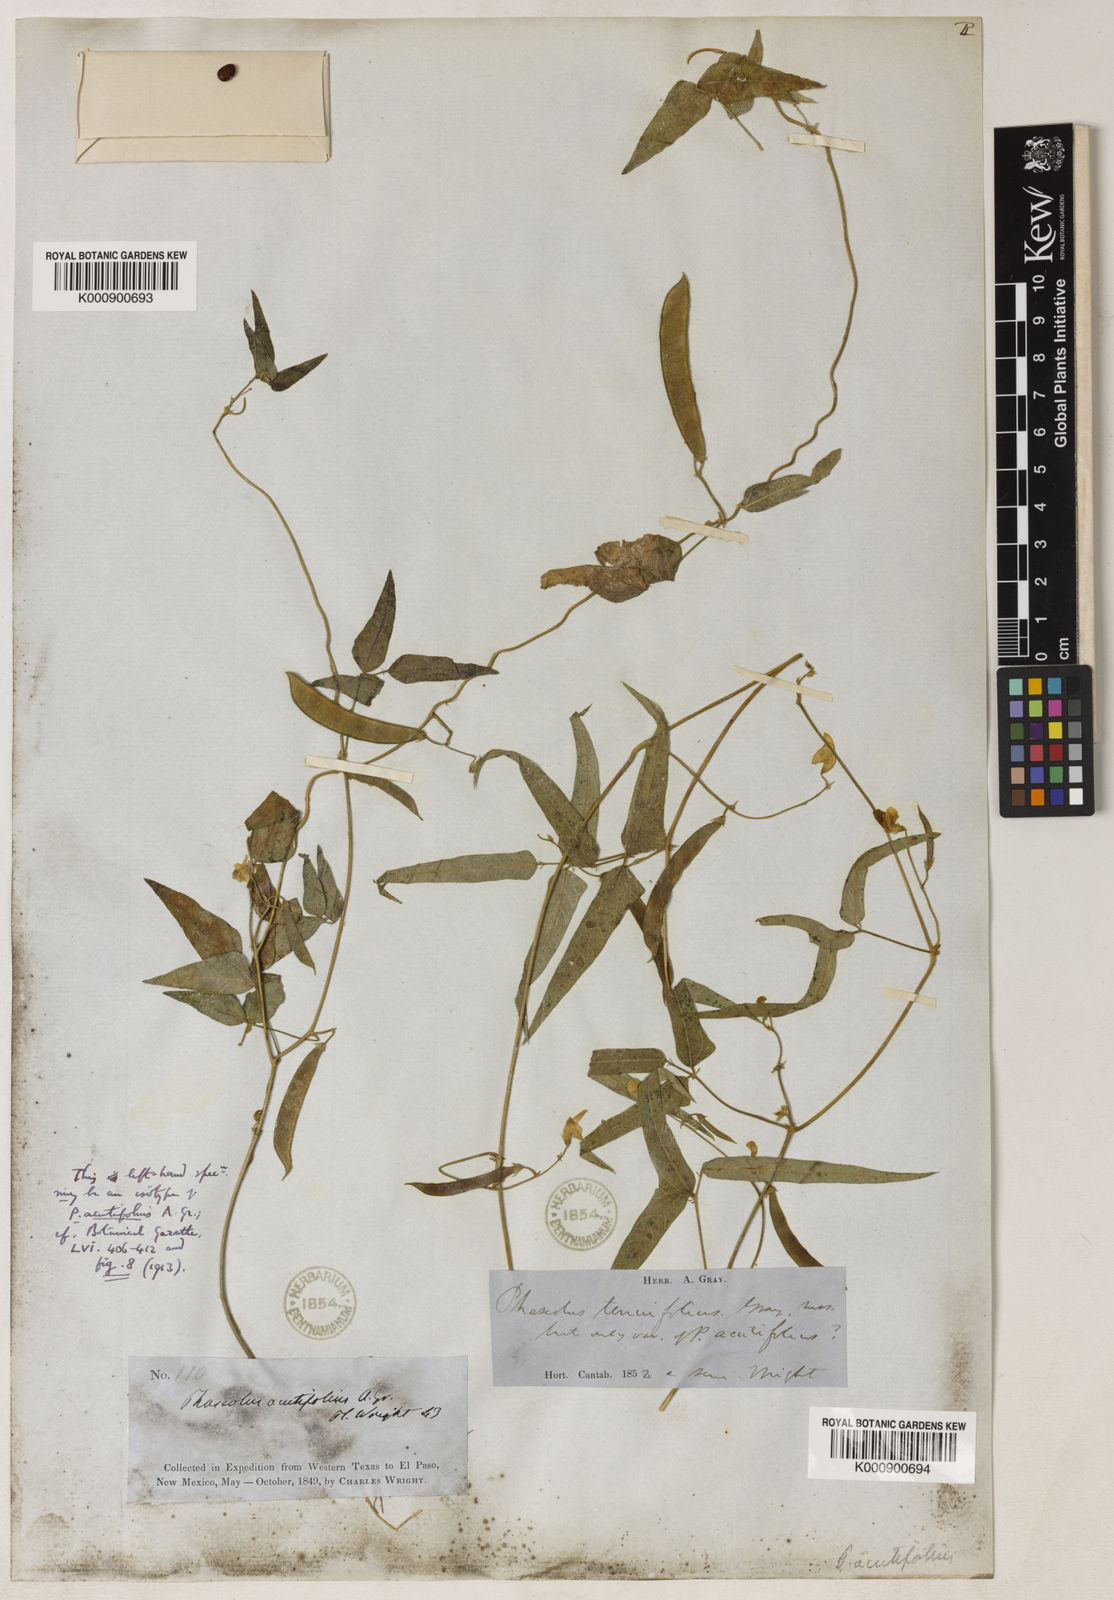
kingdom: Plantae
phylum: Tracheophyta
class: Magnoliopsida
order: Fabales
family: Fabaceae
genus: Phaseolus
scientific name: Phaseolus acutifolius
